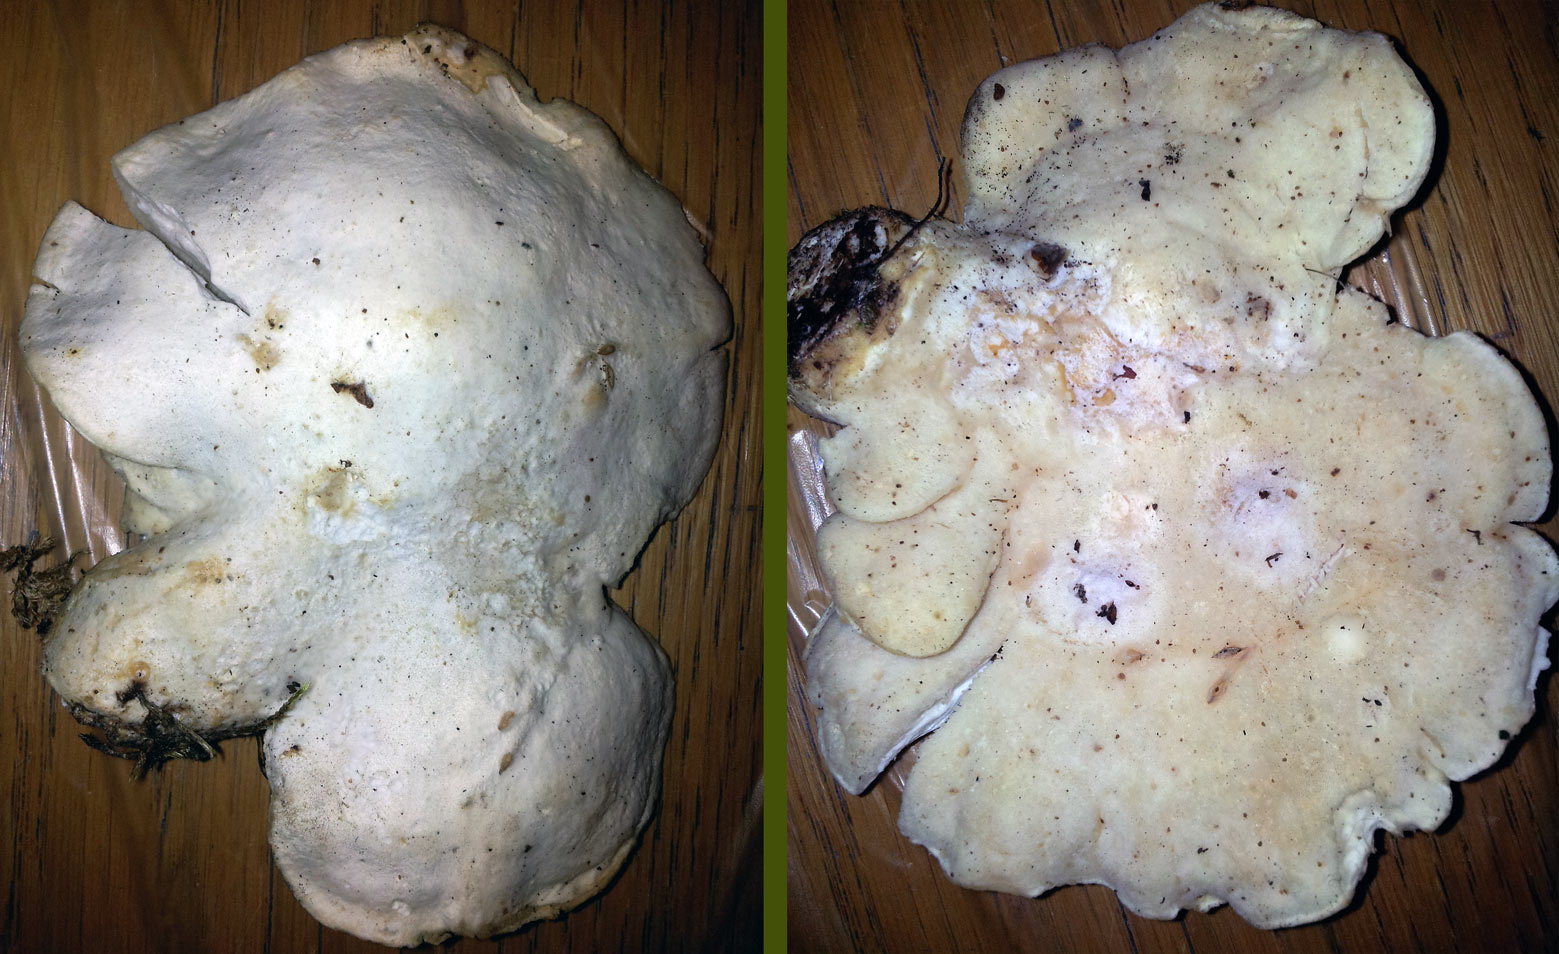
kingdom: Fungi
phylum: Basidiomycota
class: Agaricomycetes
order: Polyporales
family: Incrustoporiaceae
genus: Tyromyces
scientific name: Tyromyces chioneus
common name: stor blødporesvamp
